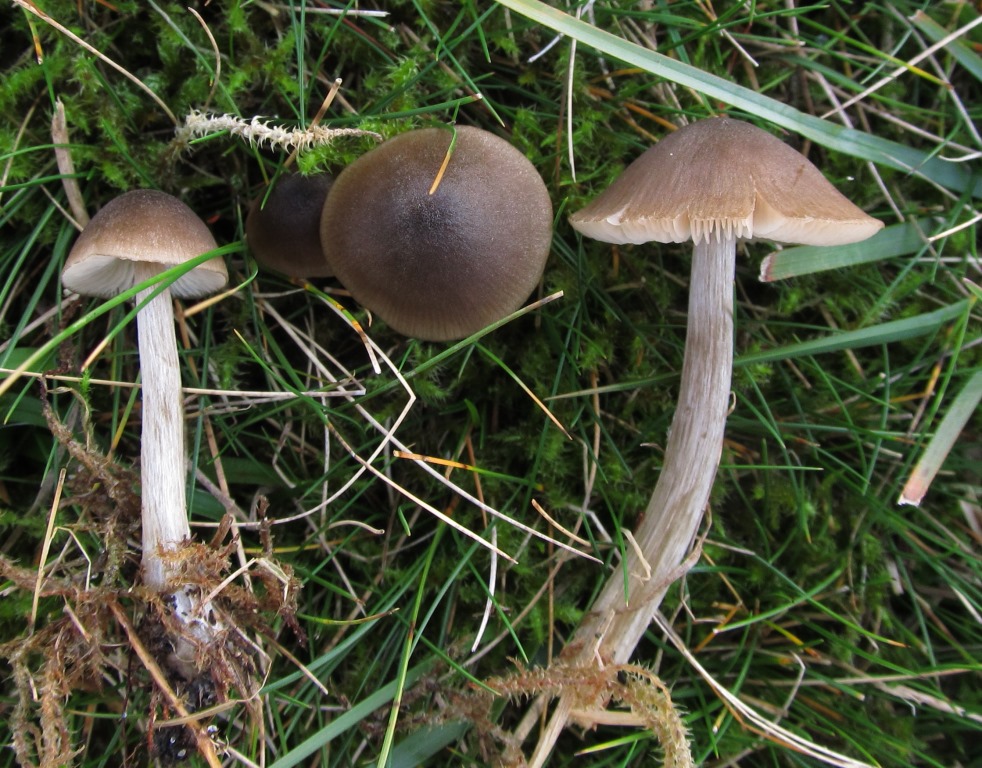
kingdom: Fungi
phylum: Basidiomycota
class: Agaricomycetes
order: Agaricales
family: Entolomataceae
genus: Entoloma
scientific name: Entoloma conferendum
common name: stjernesporet rødblad
